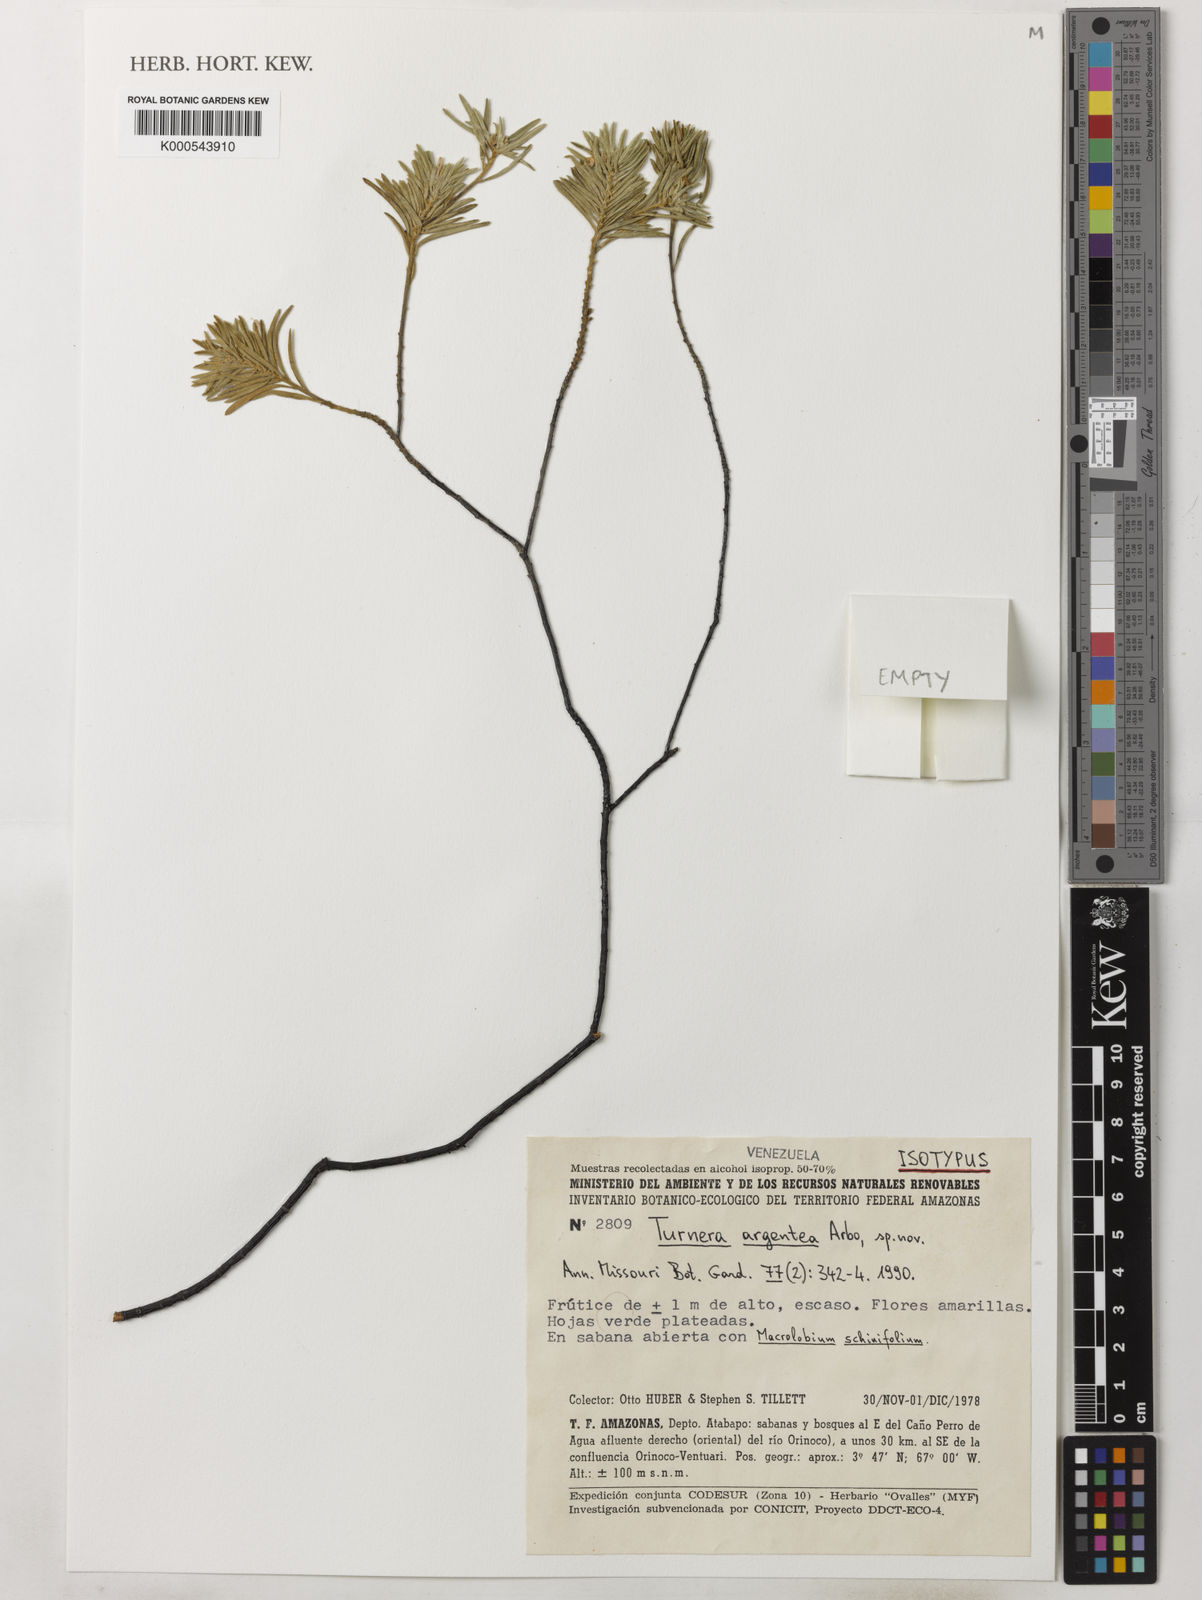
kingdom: Plantae
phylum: Tracheophyta
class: Magnoliopsida
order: Malpighiales
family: Turneraceae
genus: Turnera
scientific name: Turnera argentea
